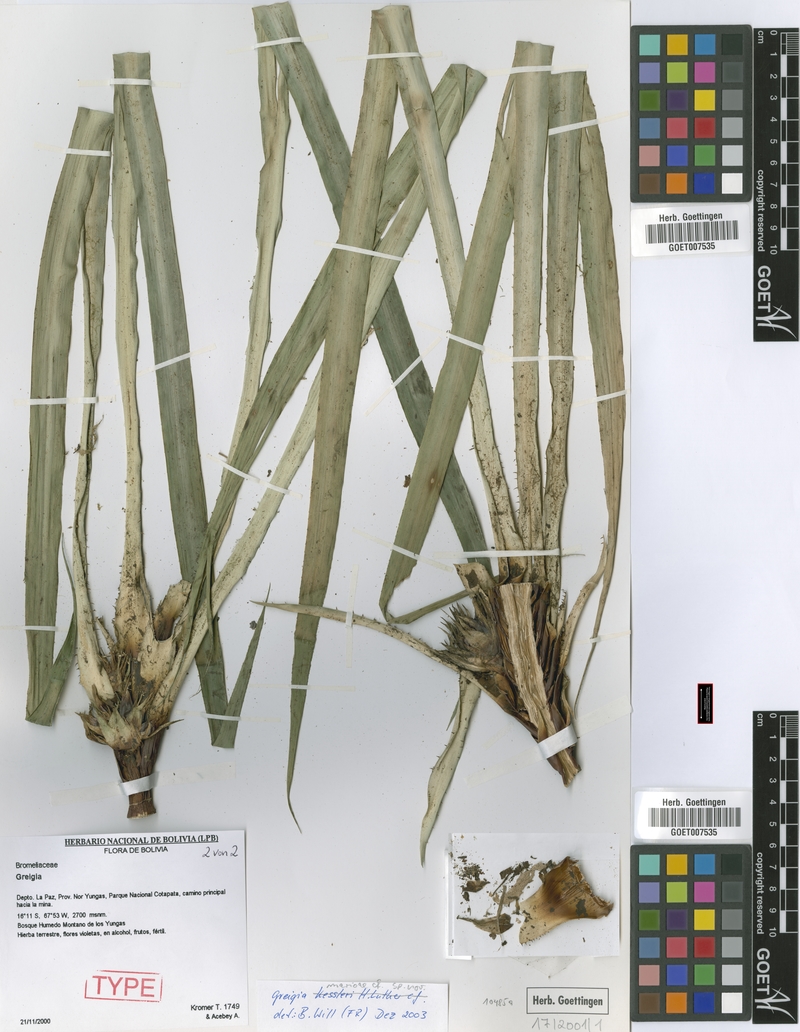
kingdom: Plantae
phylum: Tracheophyta
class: Liliopsida
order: Poales
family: Bromeliaceae
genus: Greigia
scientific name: Greigia marioi
